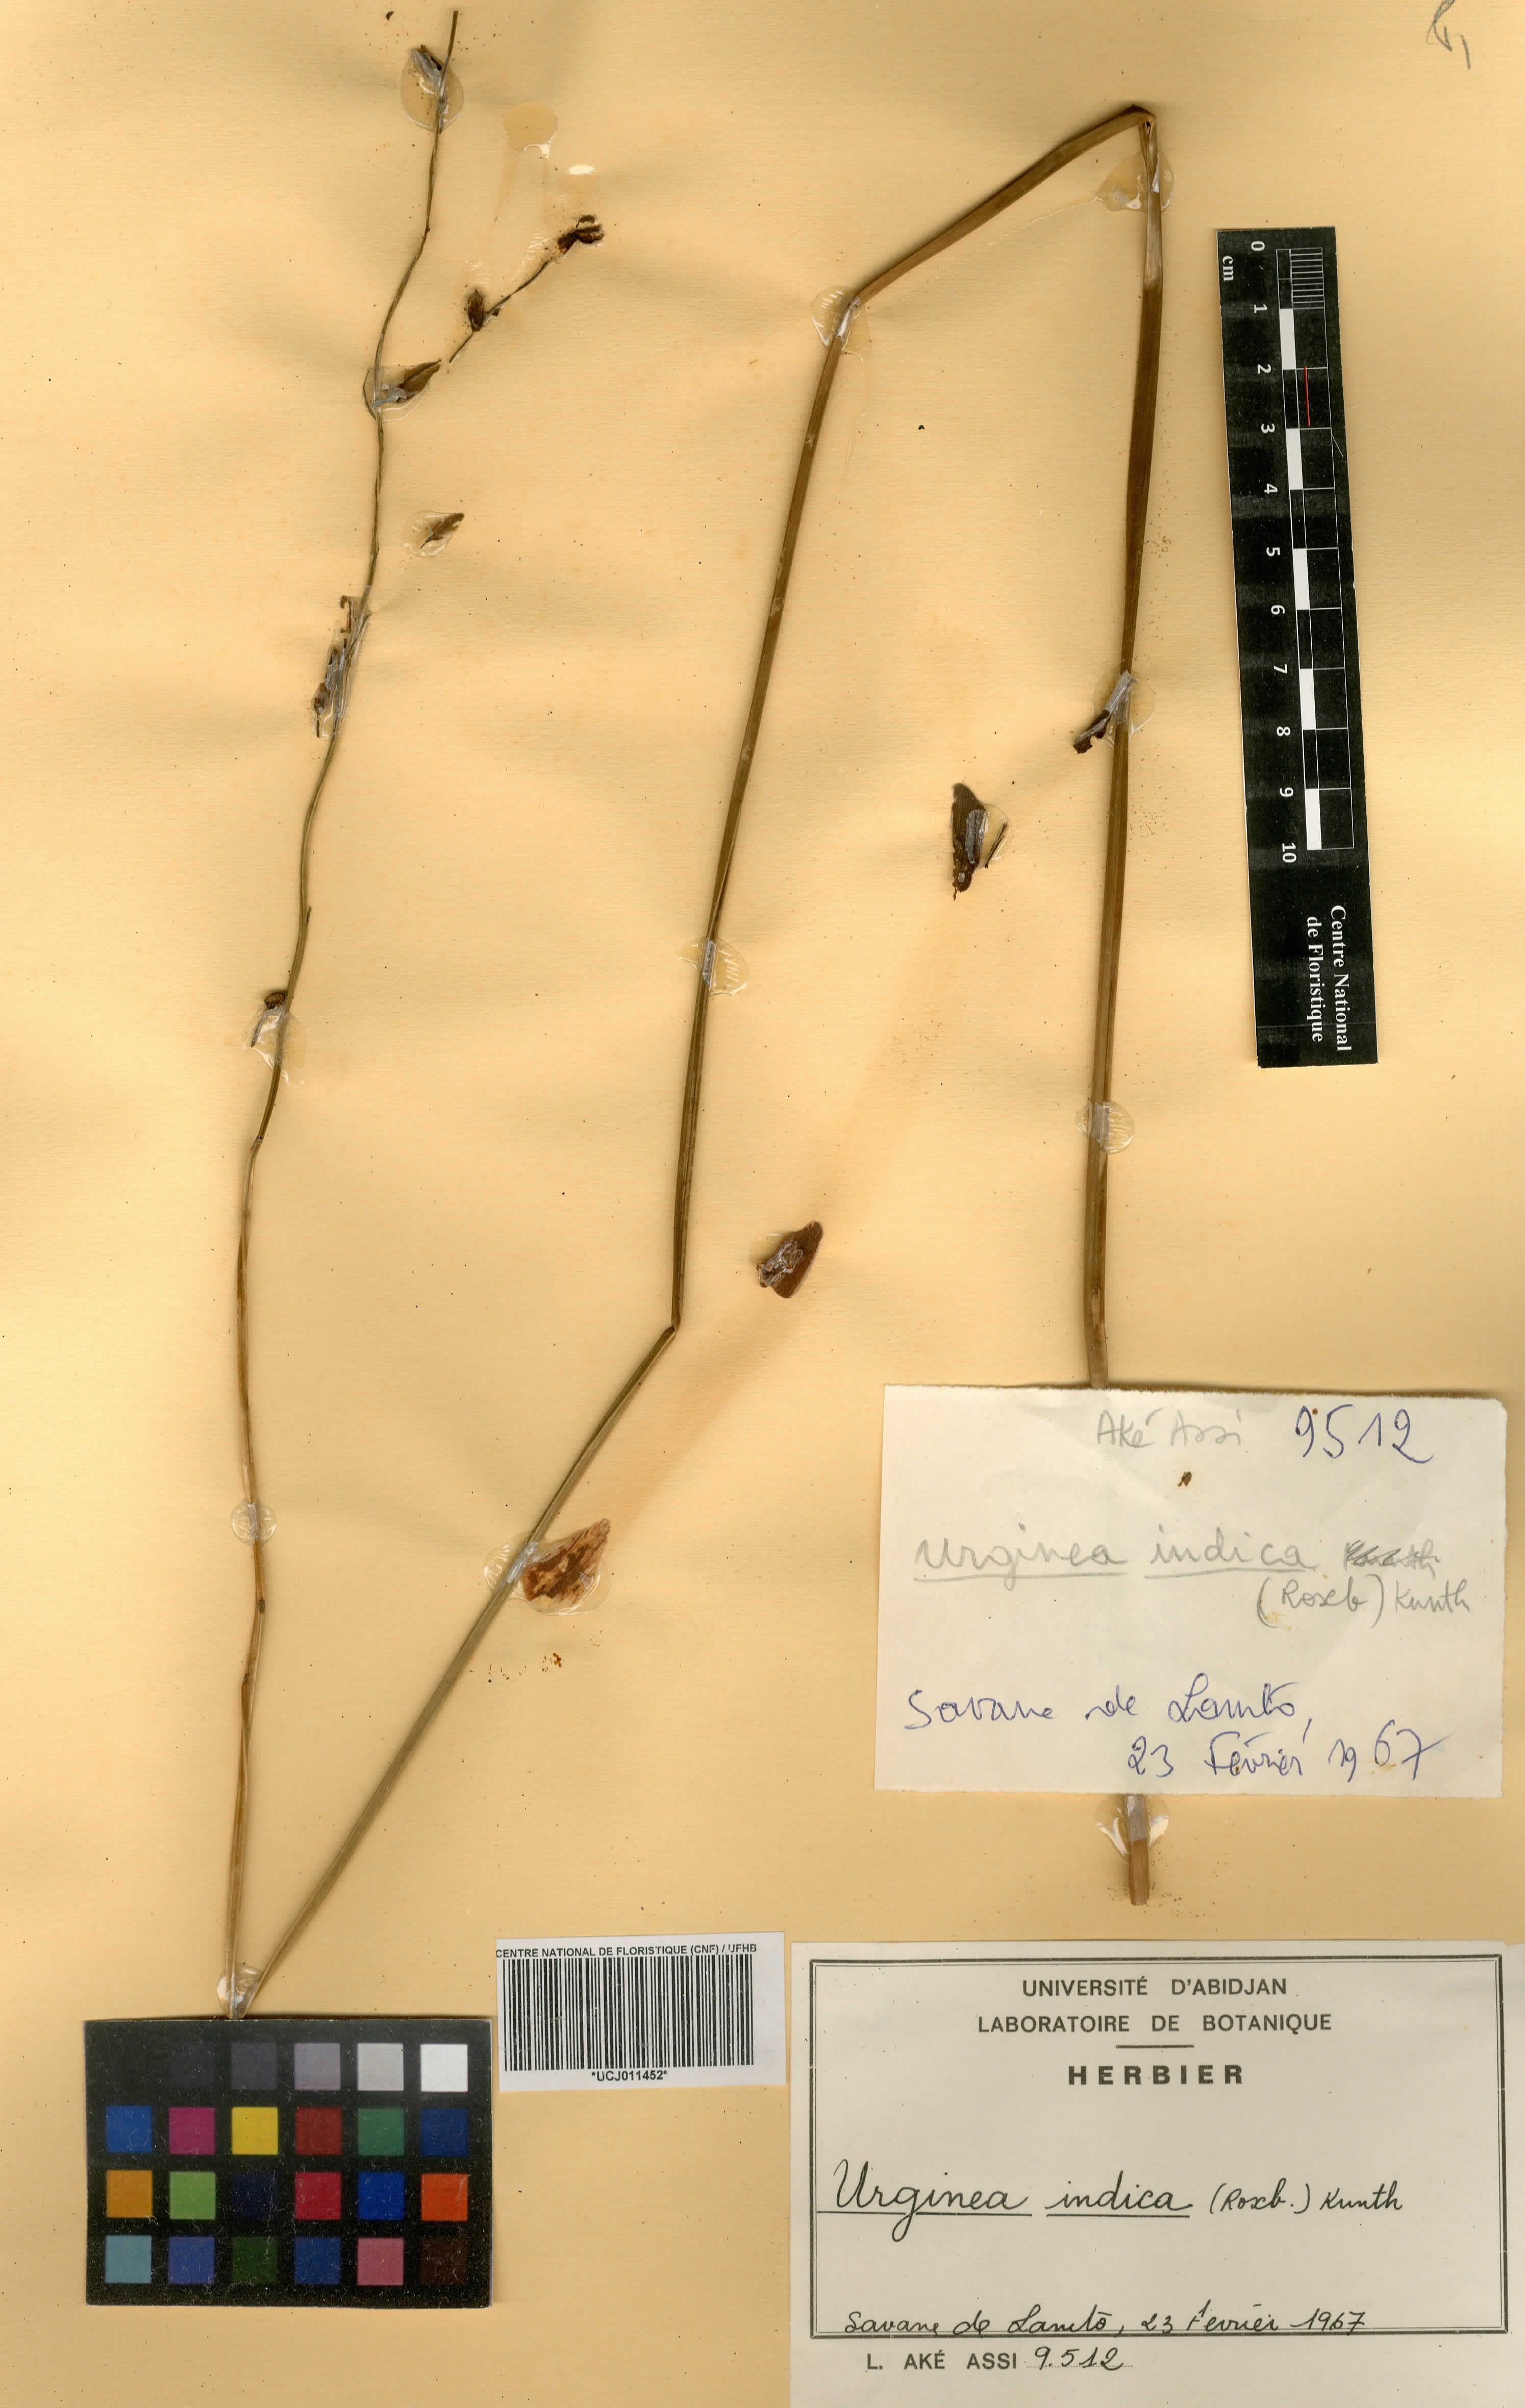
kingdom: Plantae
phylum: Tracheophyta
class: Liliopsida
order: Asparagales
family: Asparagaceae
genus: Drimia
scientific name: Drimia indica
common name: Indian-squill
